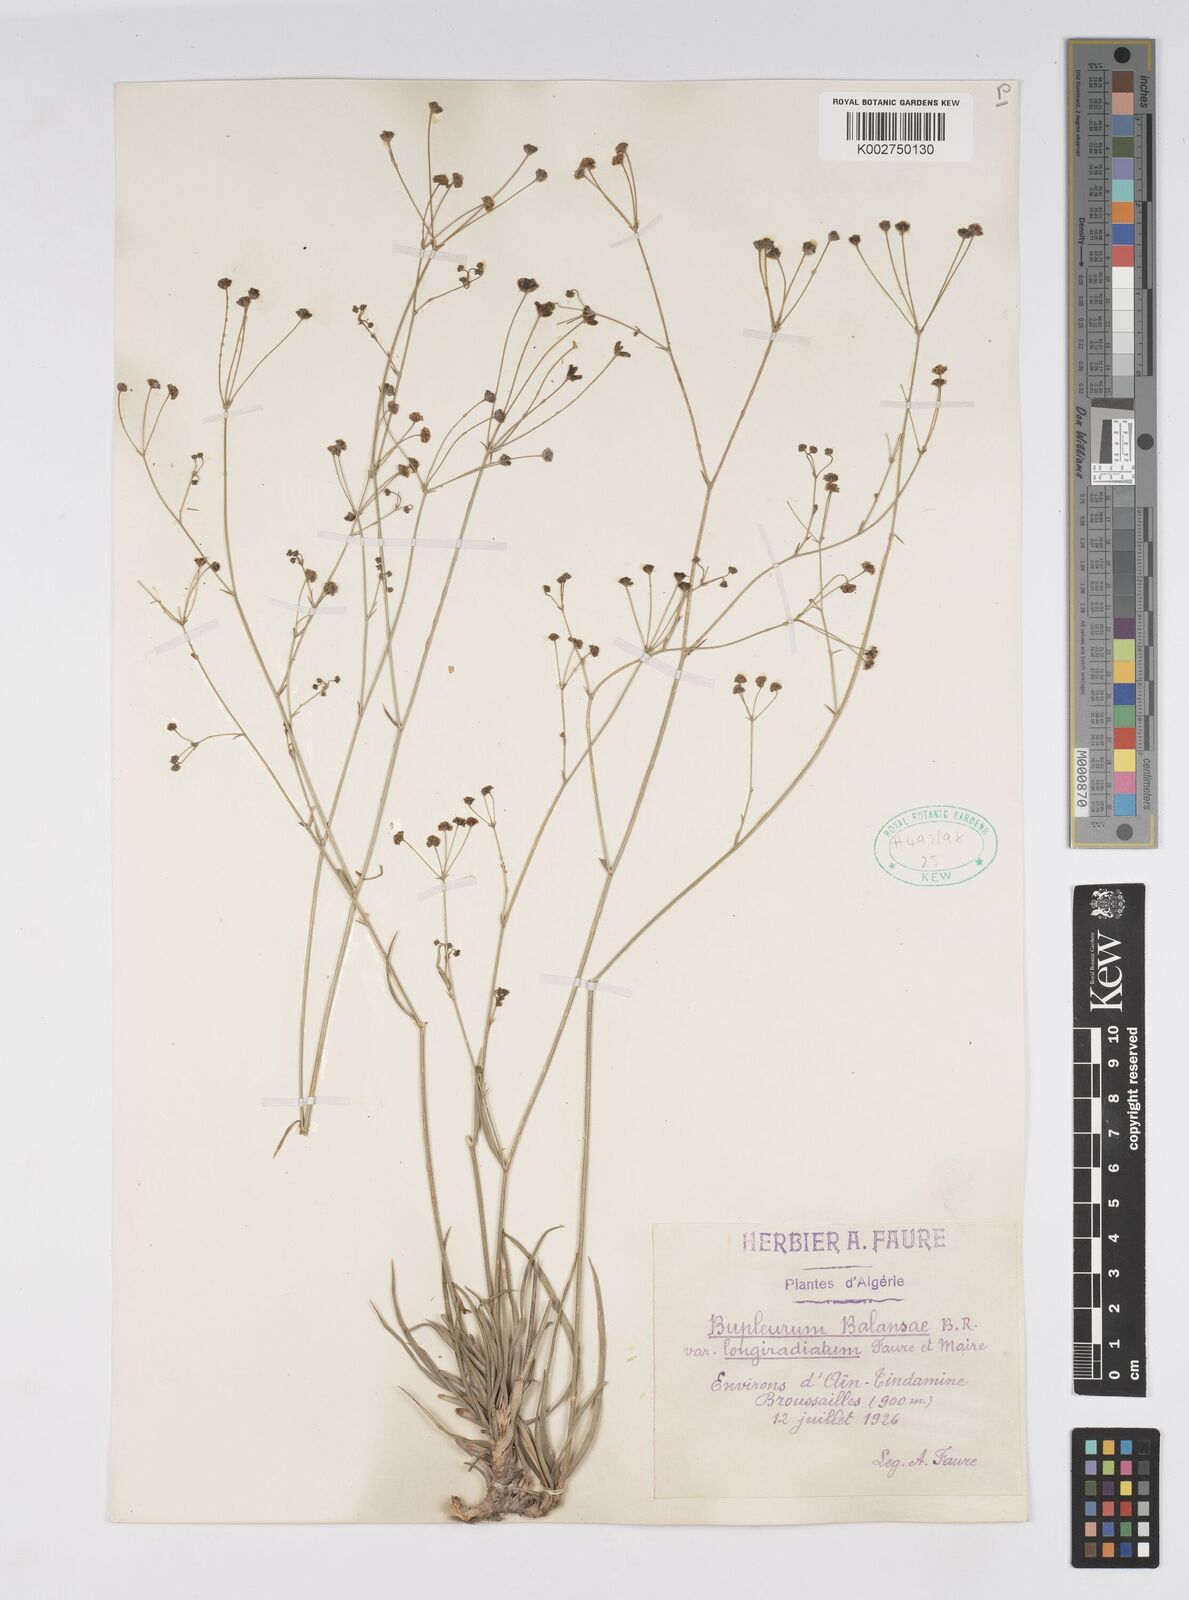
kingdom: Plantae
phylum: Tracheophyta
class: Magnoliopsida
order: Apiales
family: Apiaceae
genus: Bupleurum
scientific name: Bupleurum balansae
